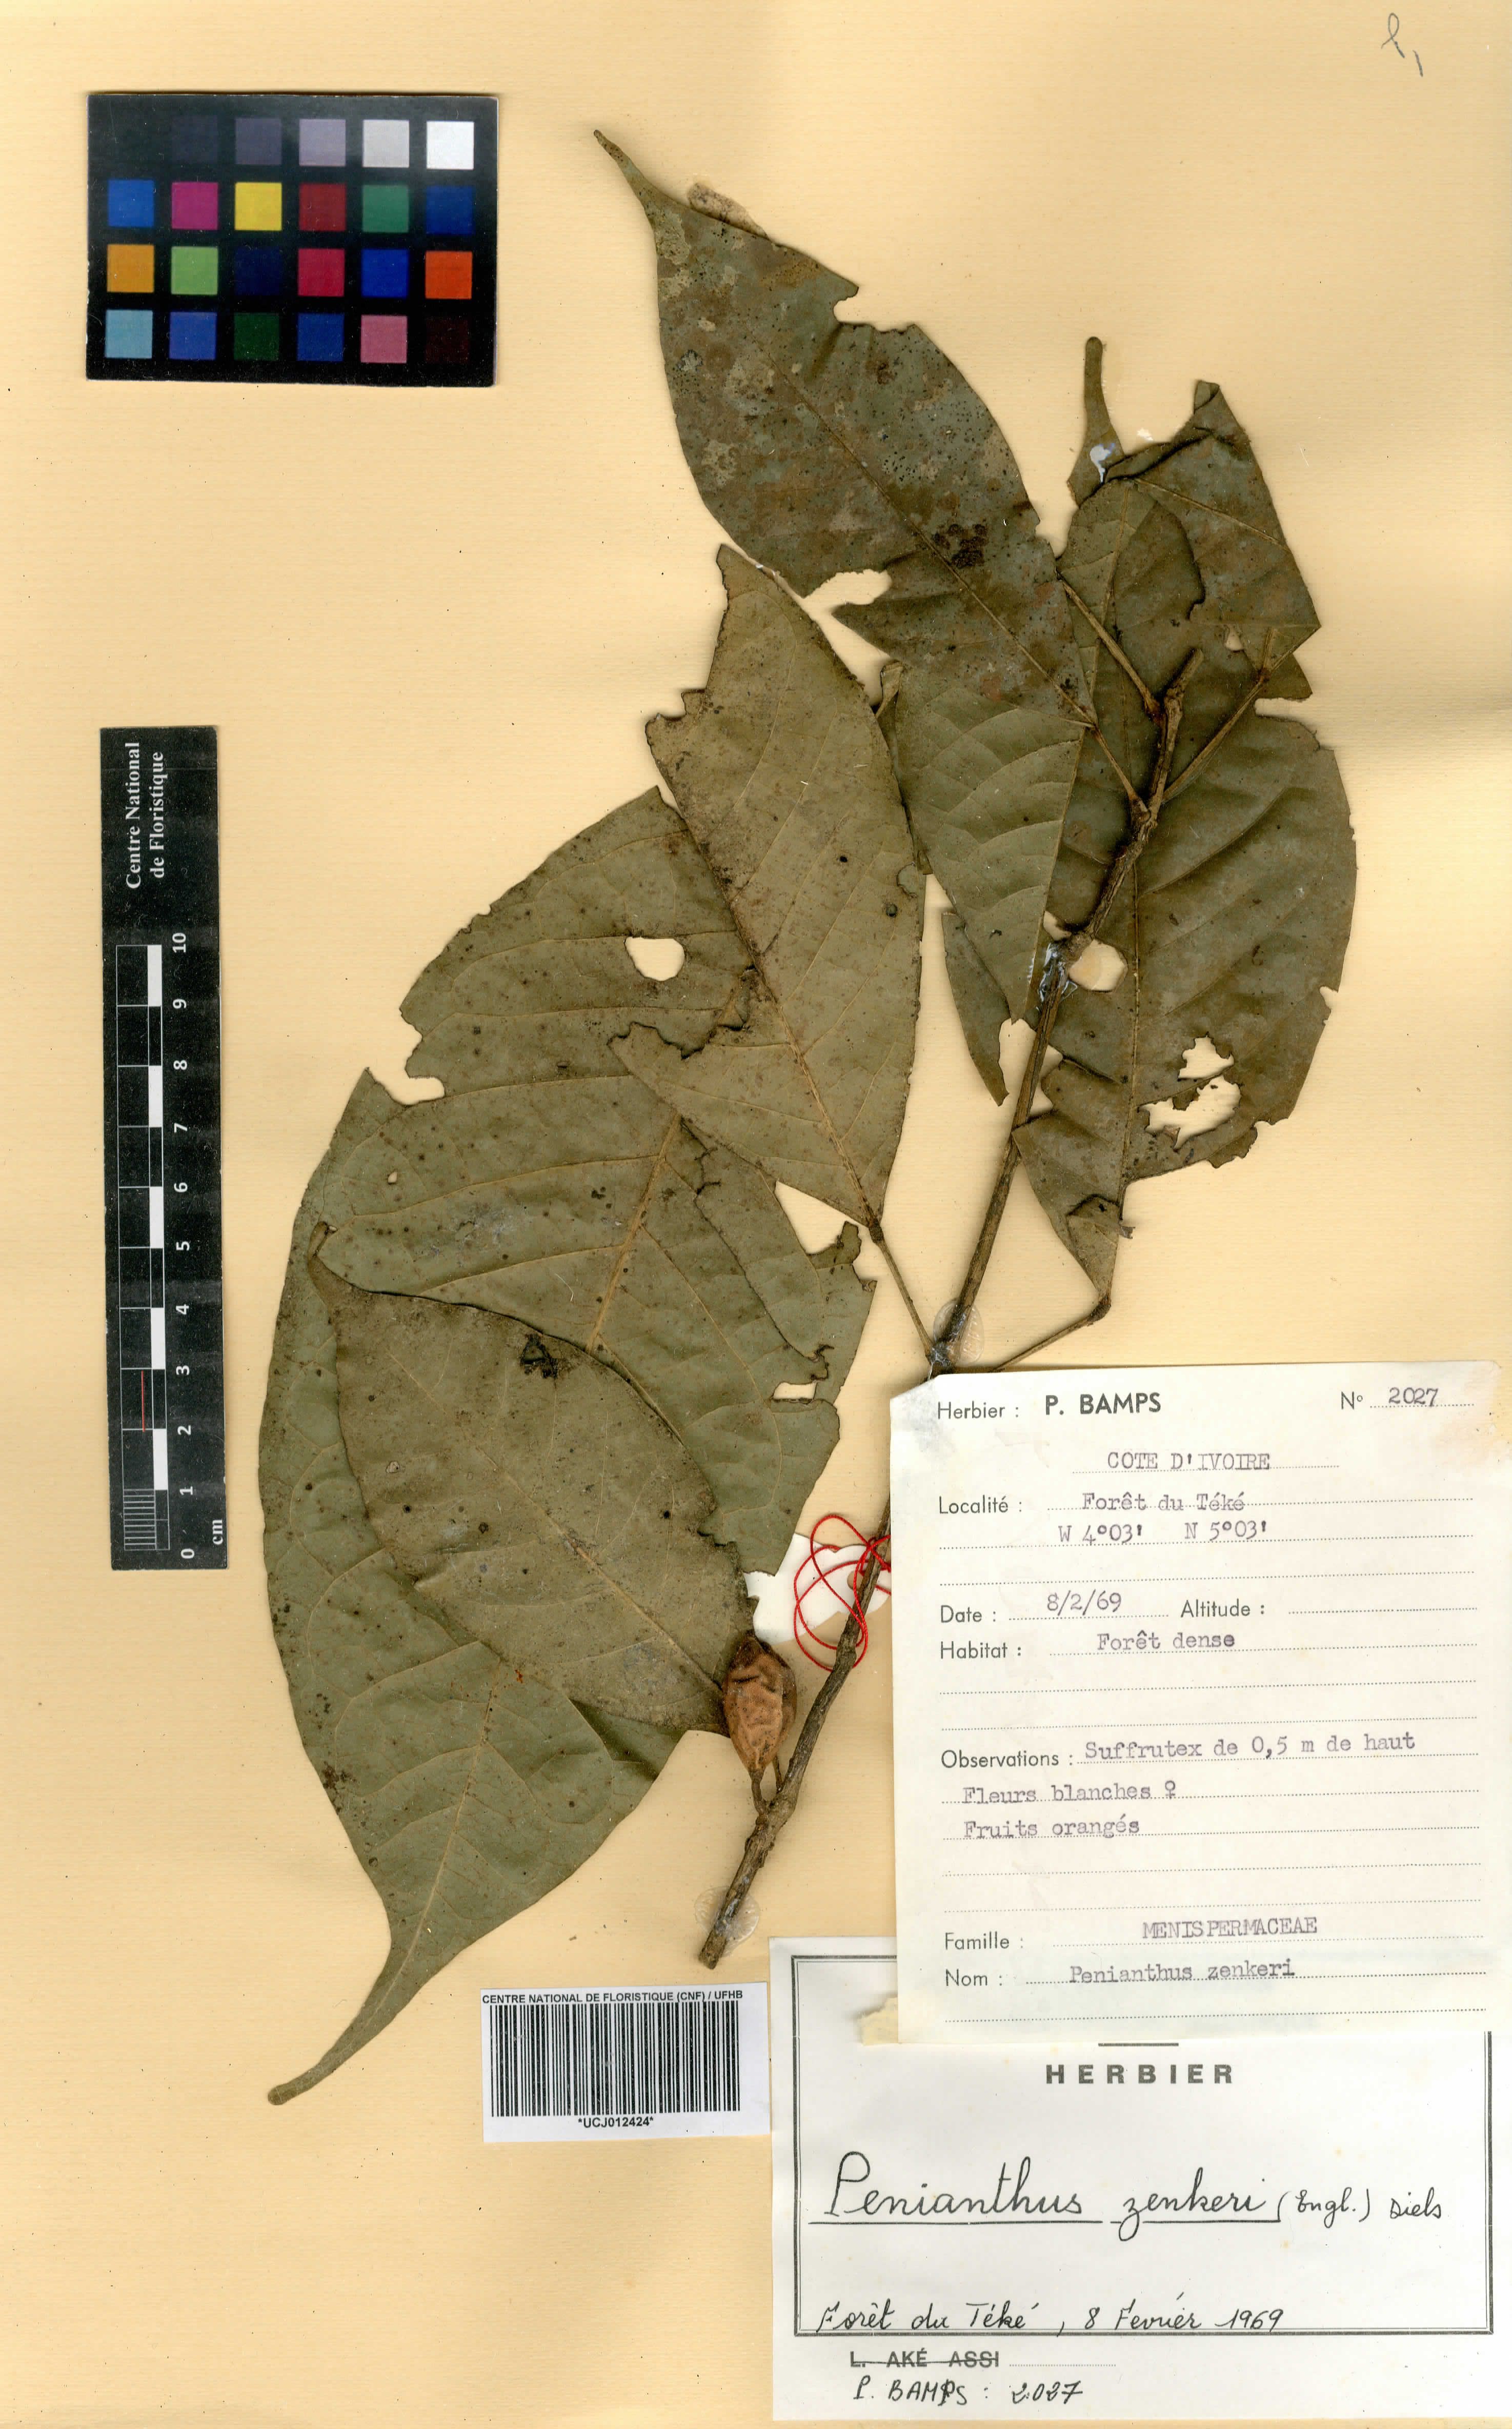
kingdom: Plantae
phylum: Tracheophyta
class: Magnoliopsida
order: Ranunculales
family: Menispermaceae
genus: Penianthus
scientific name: Penianthus zenkeri
